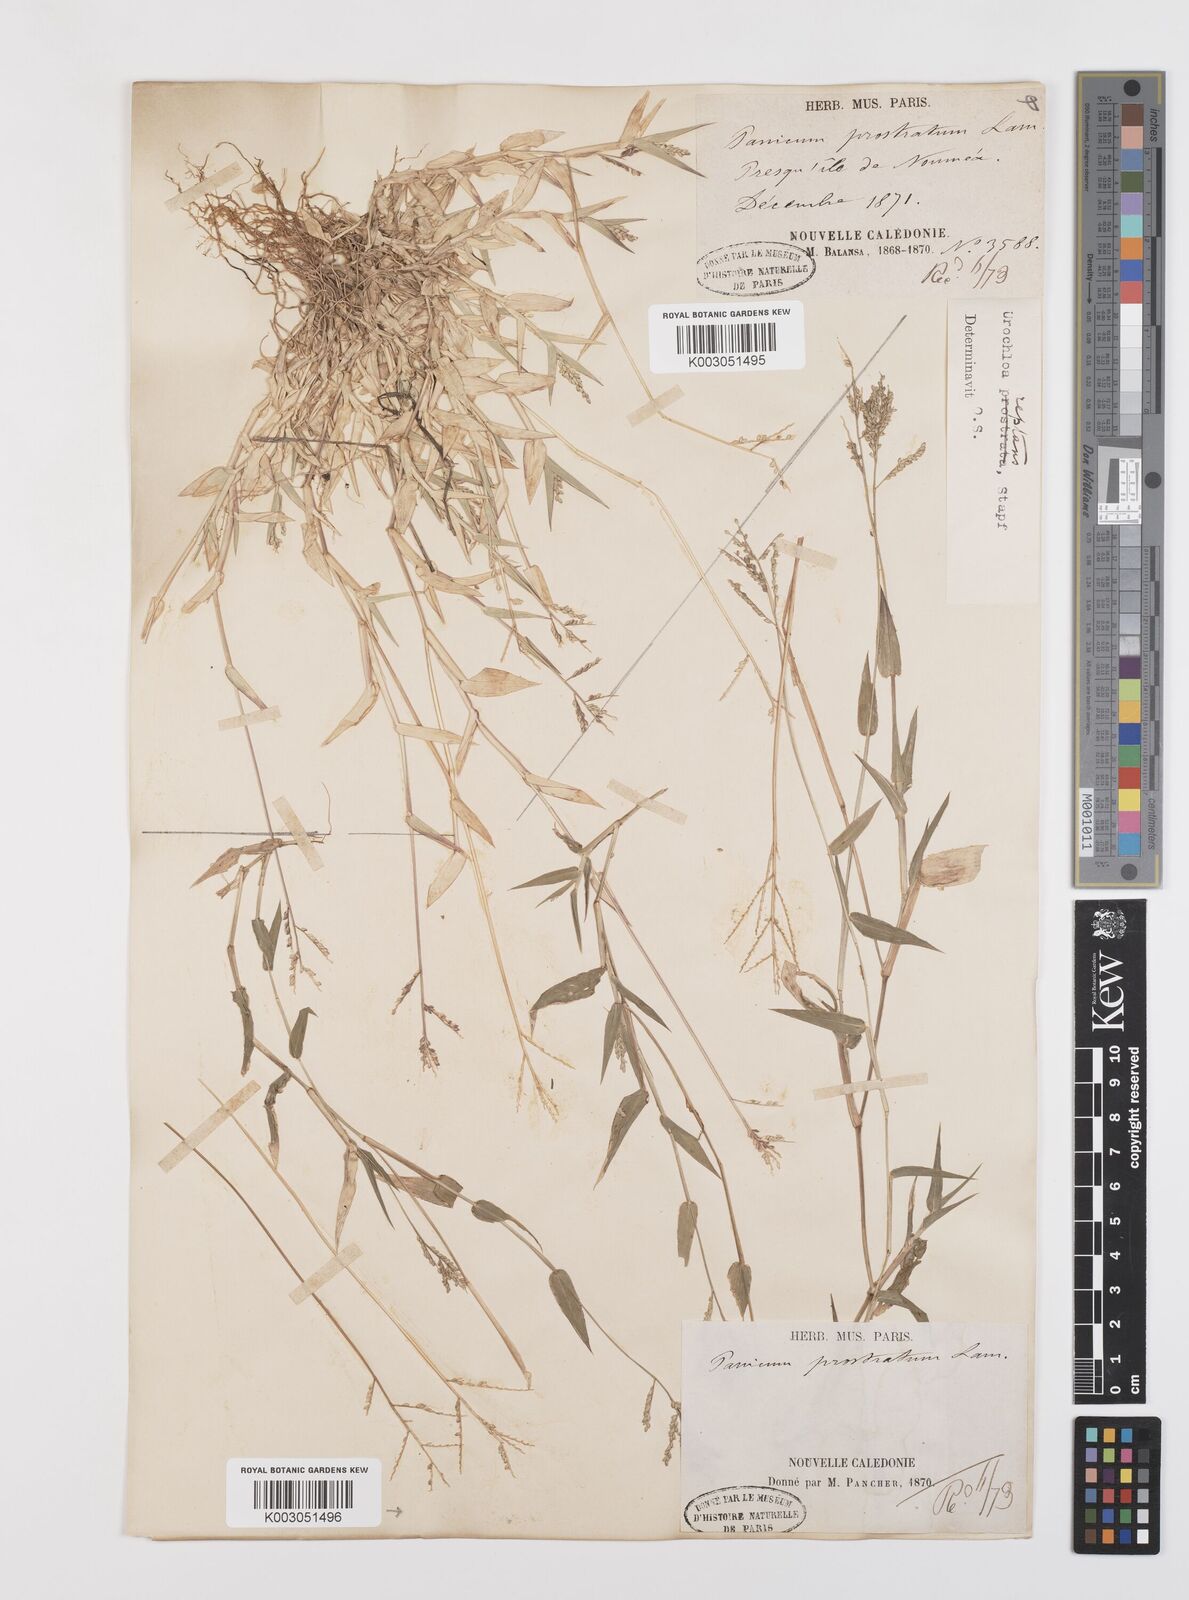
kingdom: Plantae
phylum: Tracheophyta
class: Liliopsida
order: Poales
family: Poaceae
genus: Urochloa
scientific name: Urochloa reptans
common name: Sprawling signalgrass
